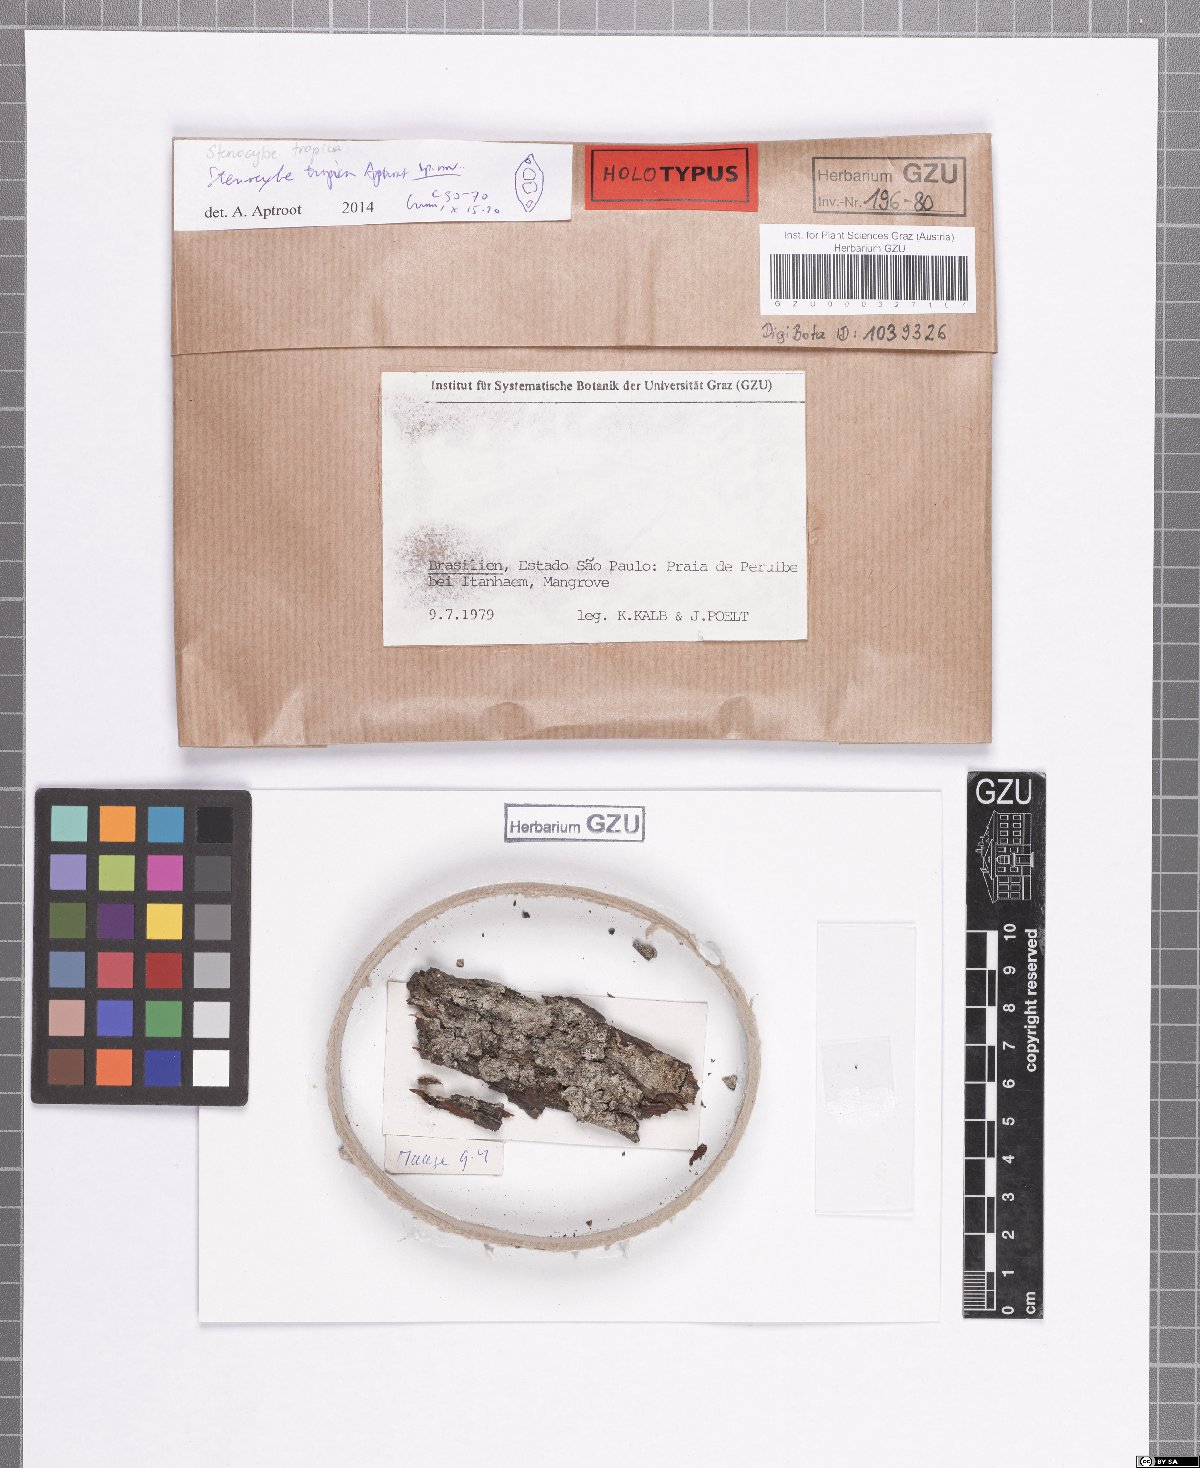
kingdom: Fungi
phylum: Ascomycota
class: Eurotiomycetes
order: Mycocaliciales
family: Mycocaliciaceae
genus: Stenocybe
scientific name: Stenocybe tropica
